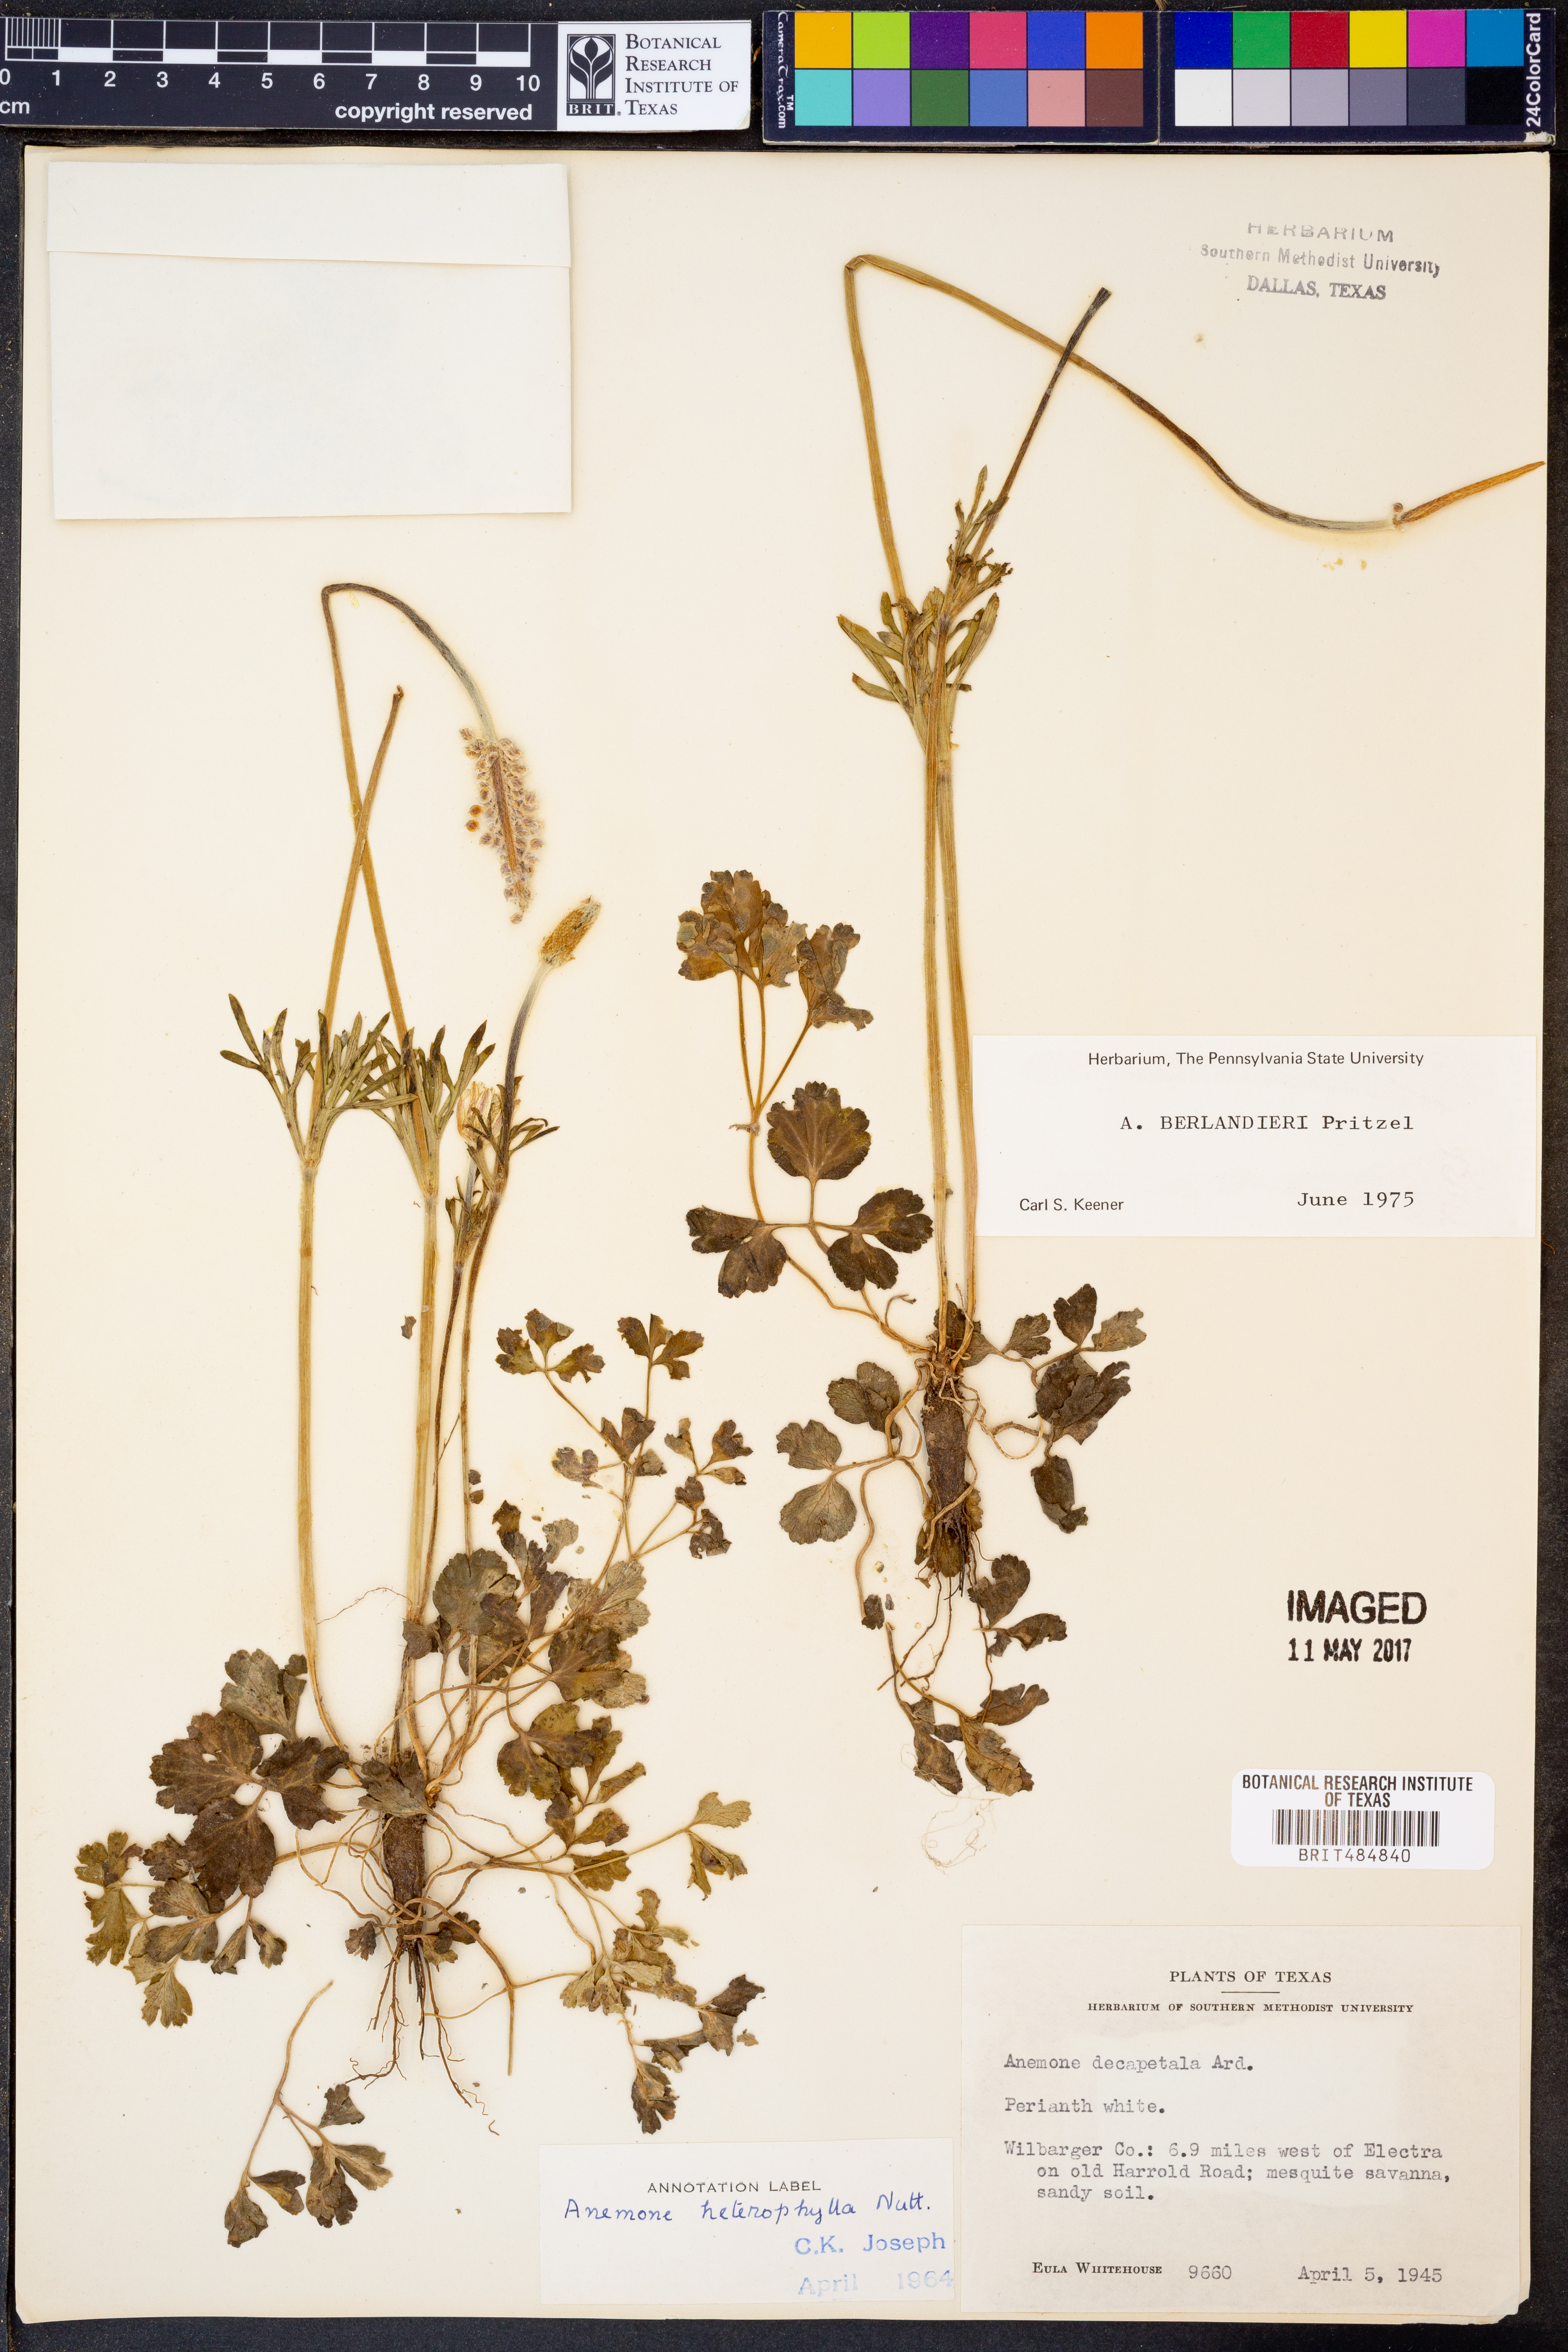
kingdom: Plantae
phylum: Tracheophyta
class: Magnoliopsida
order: Ranunculales
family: Ranunculaceae
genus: Anemone
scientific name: Anemone berlandieri
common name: Ten-petal anemone
